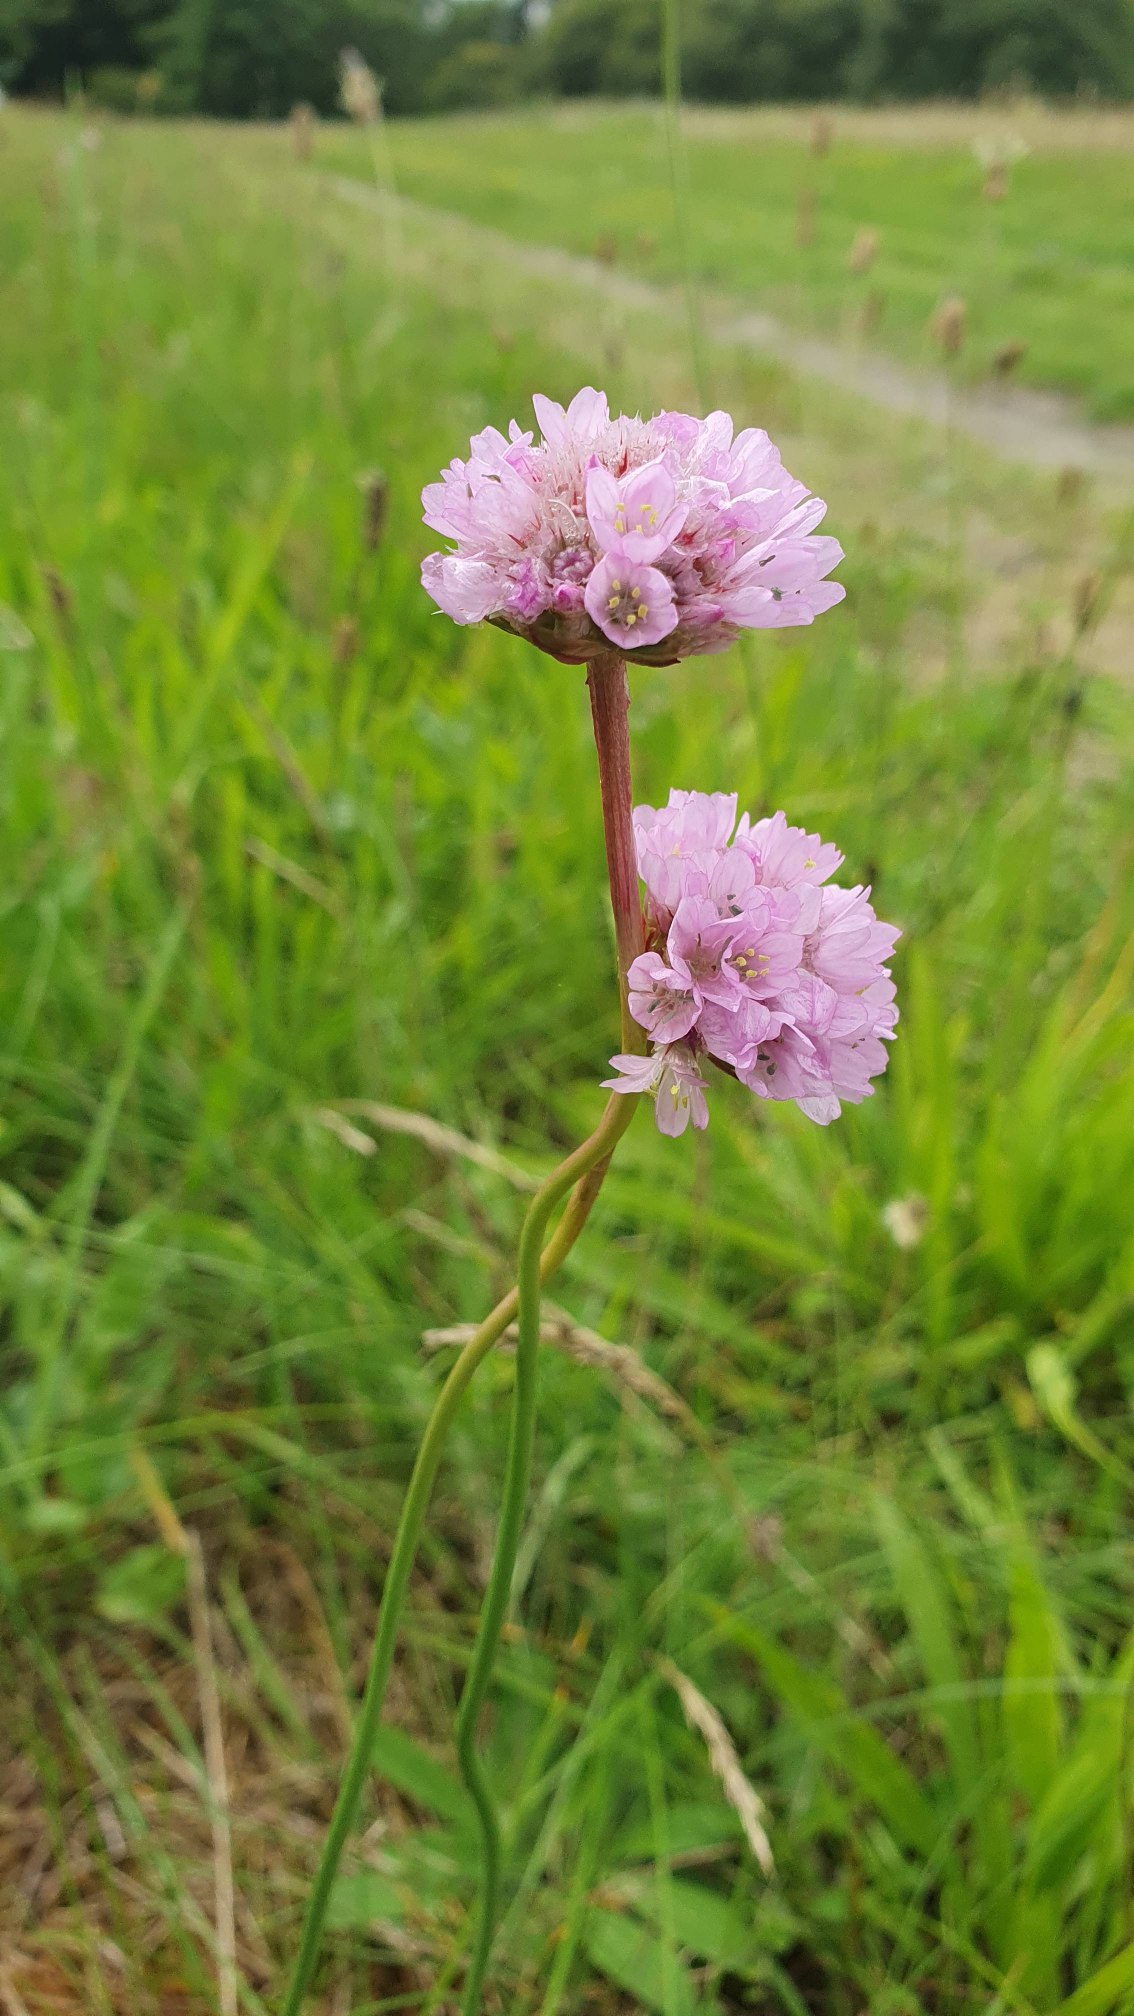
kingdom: Plantae
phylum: Tracheophyta
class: Magnoliopsida
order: Caryophyllales
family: Plumbaginaceae
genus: Armeria
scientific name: Armeria maritima
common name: Engelskgræs
